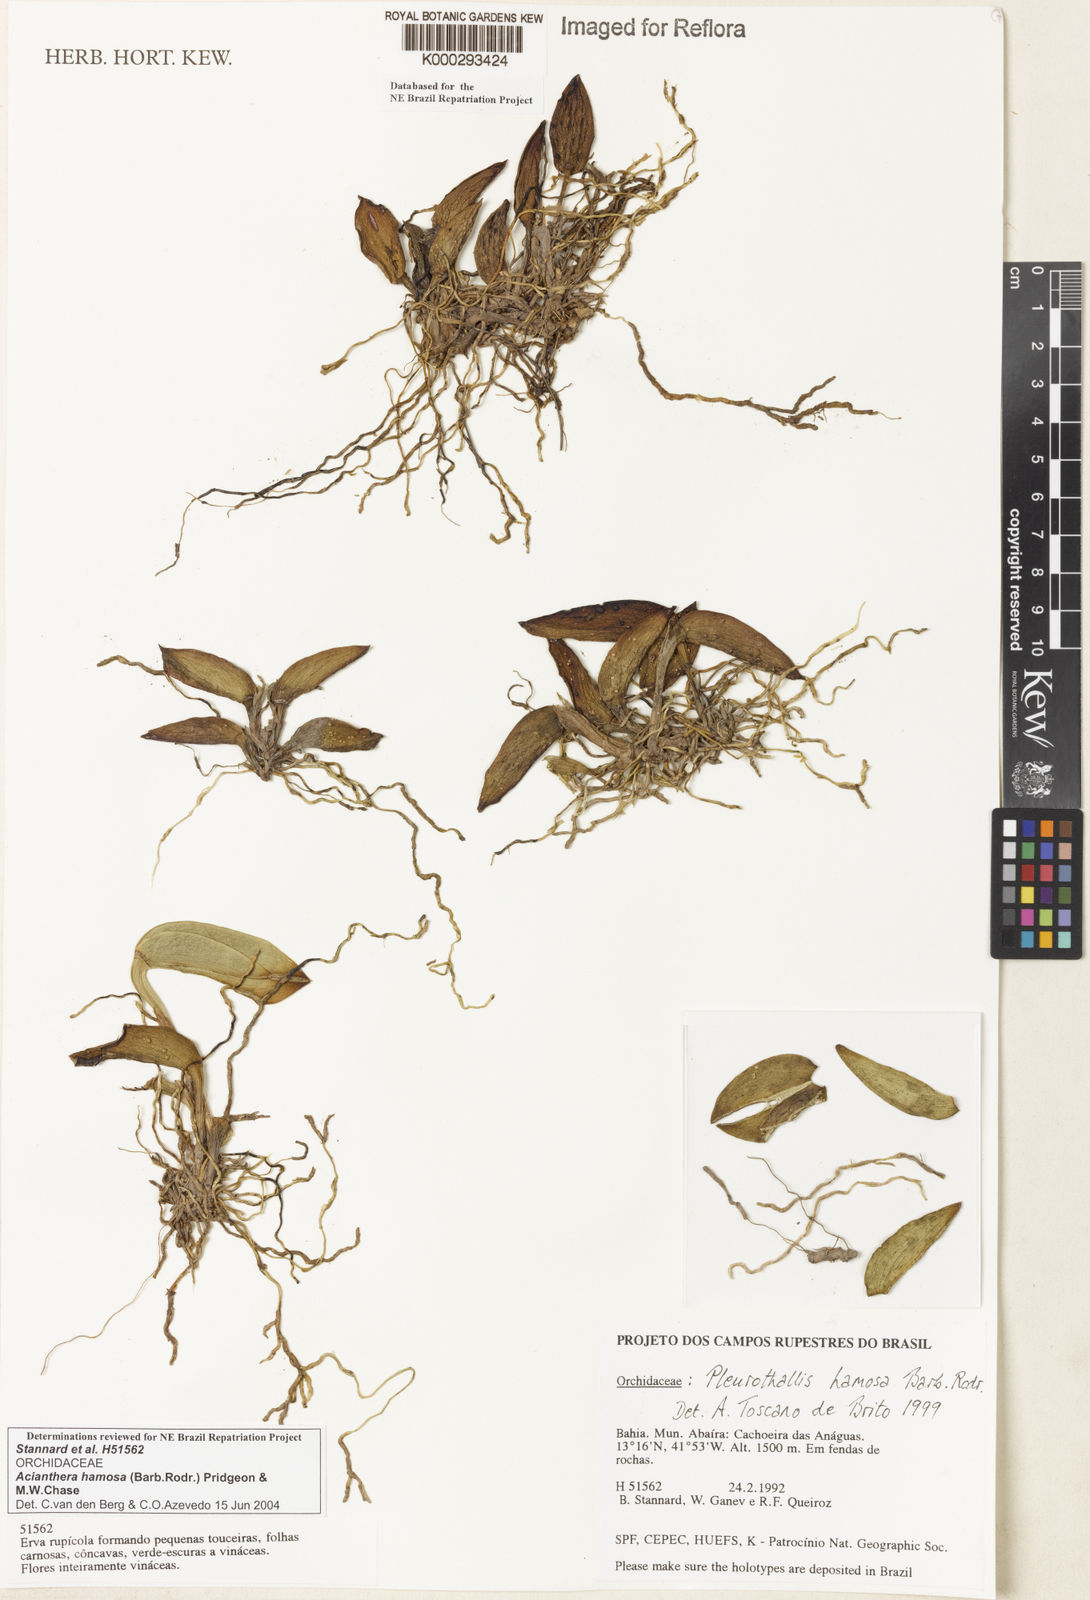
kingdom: Plantae
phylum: Tracheophyta
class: Liliopsida
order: Asparagales
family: Orchidaceae
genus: Acianthera
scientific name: Acianthera prolifera
